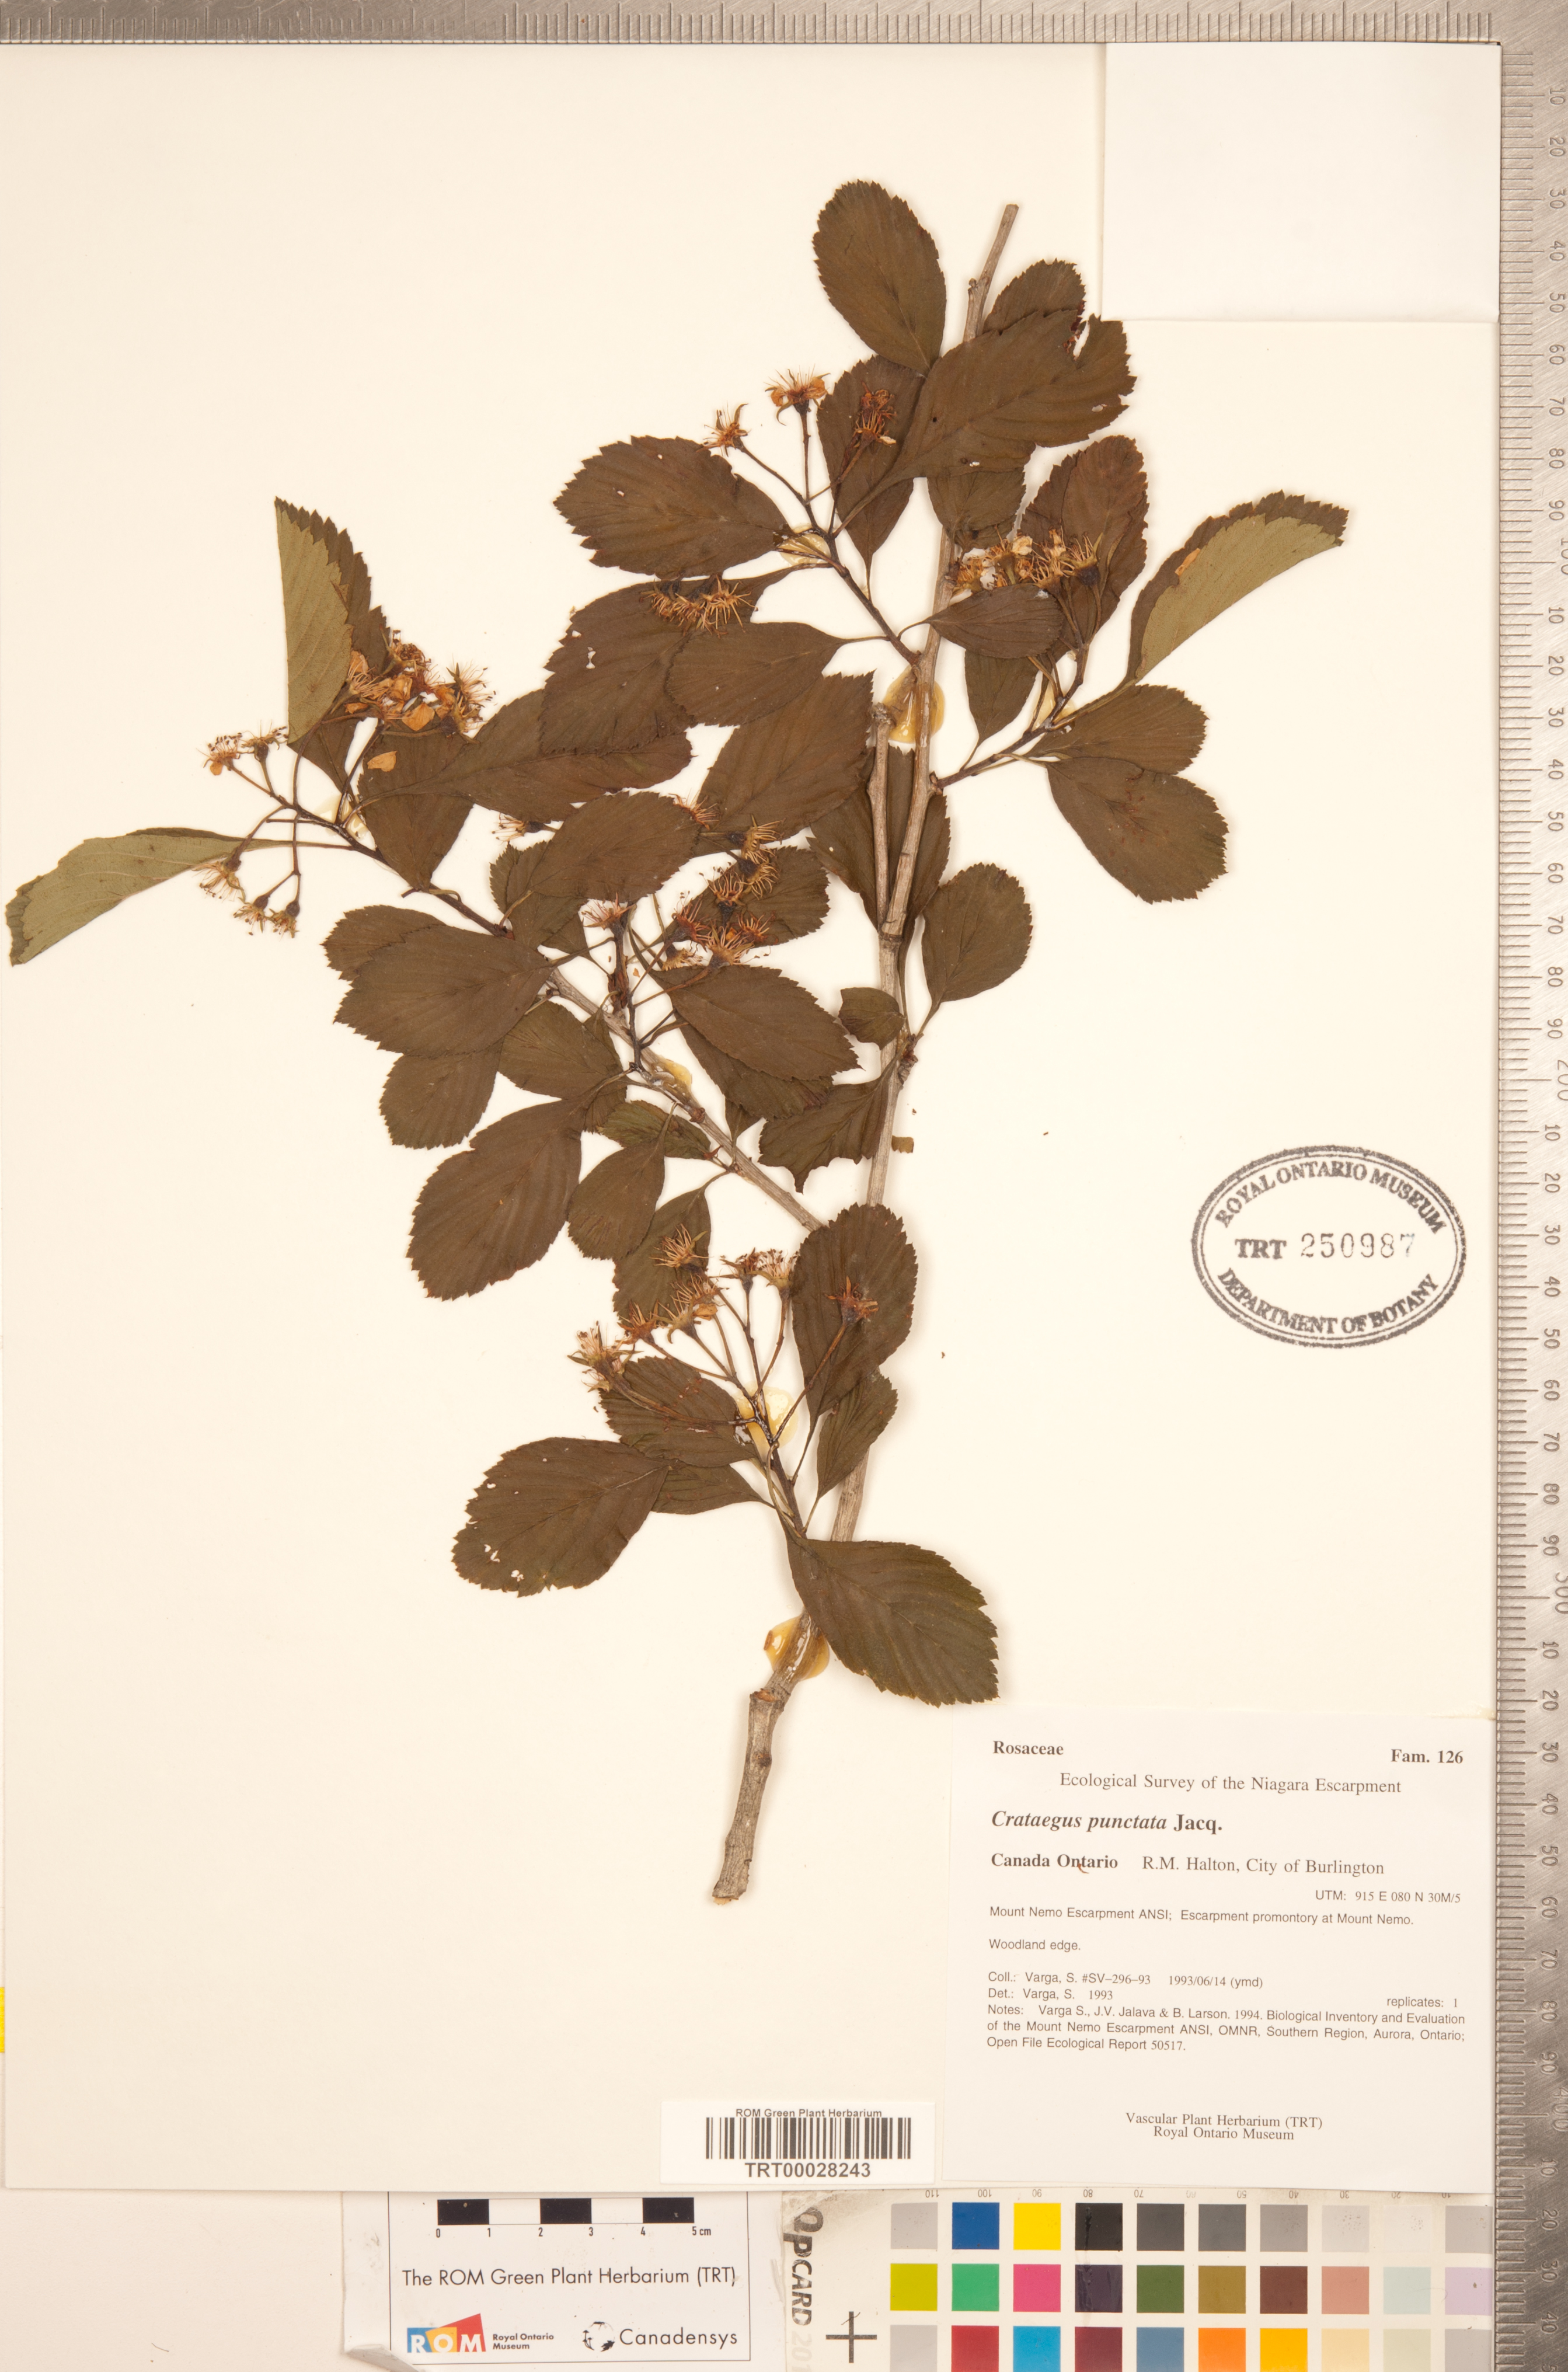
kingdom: Plantae
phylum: Tracheophyta
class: Magnoliopsida
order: Rosales
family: Rosaceae
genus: Crataegus
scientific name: Crataegus punctata
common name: Dotted hawthorn
